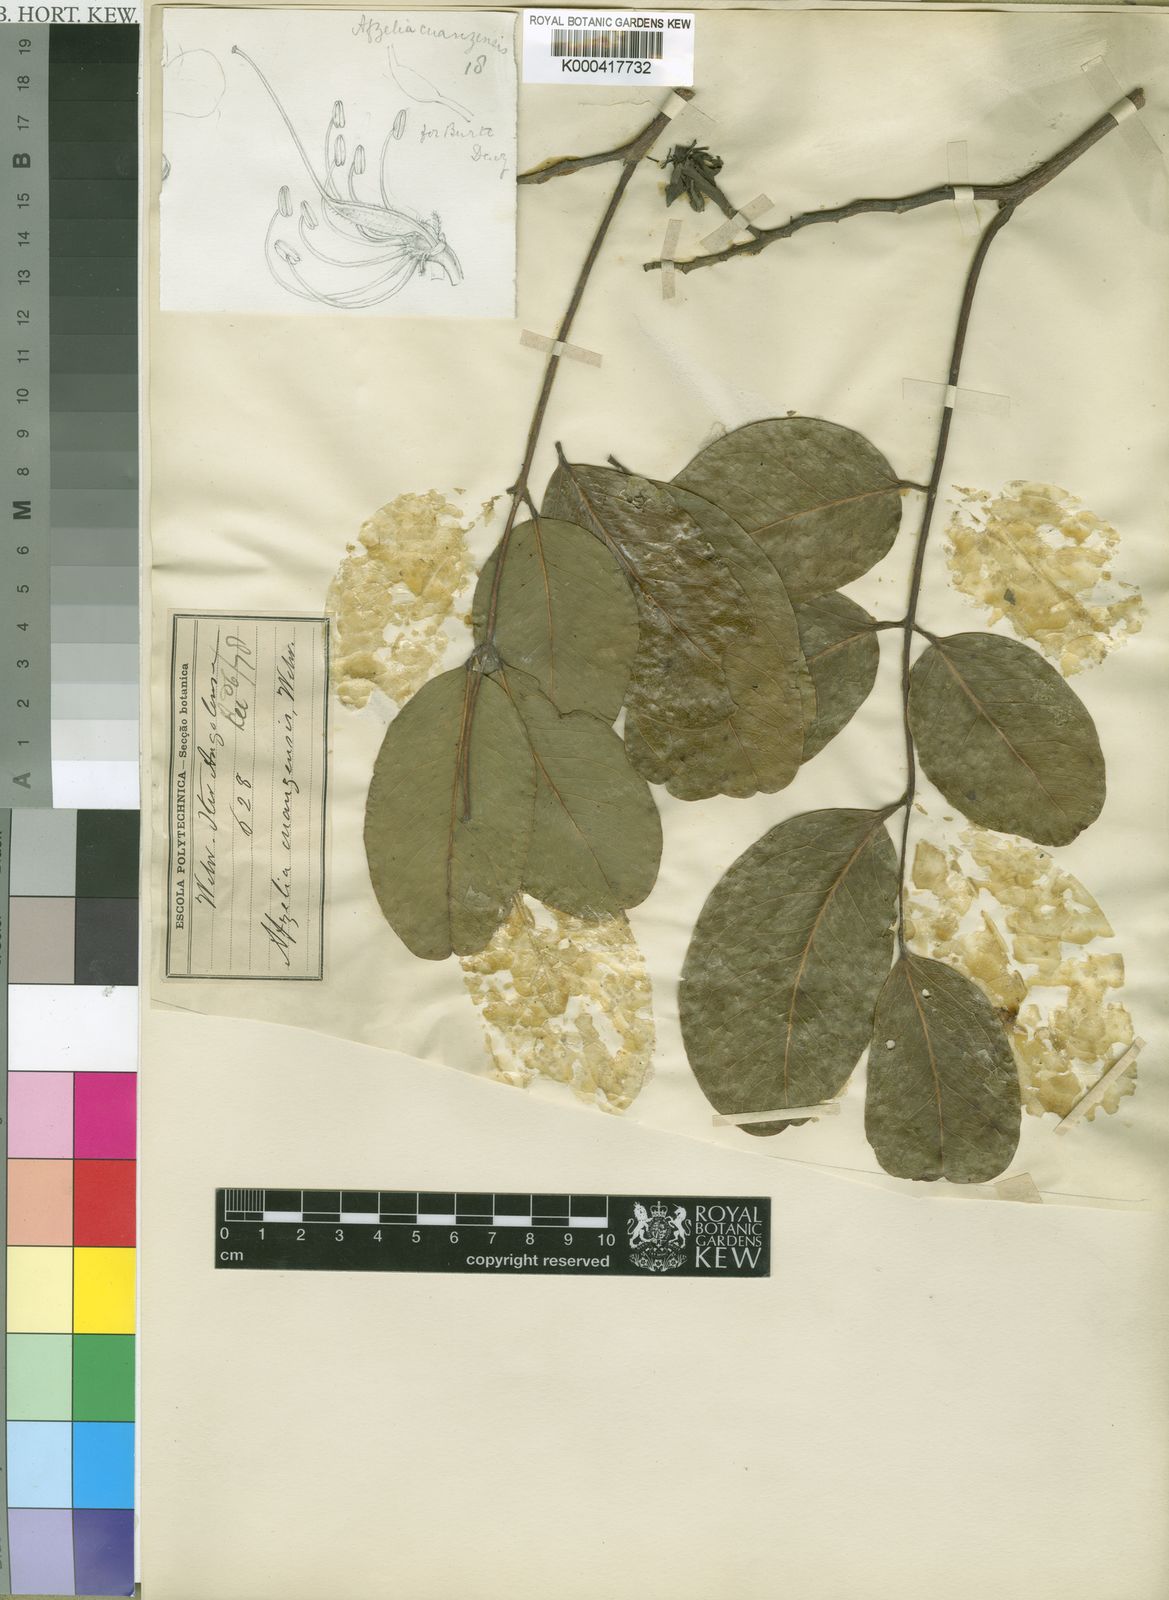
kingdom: Plantae
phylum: Tracheophyta
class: Magnoliopsida
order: Fabales
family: Fabaceae
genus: Afzelia
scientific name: Afzelia quanzensis
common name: Pod mahogany
